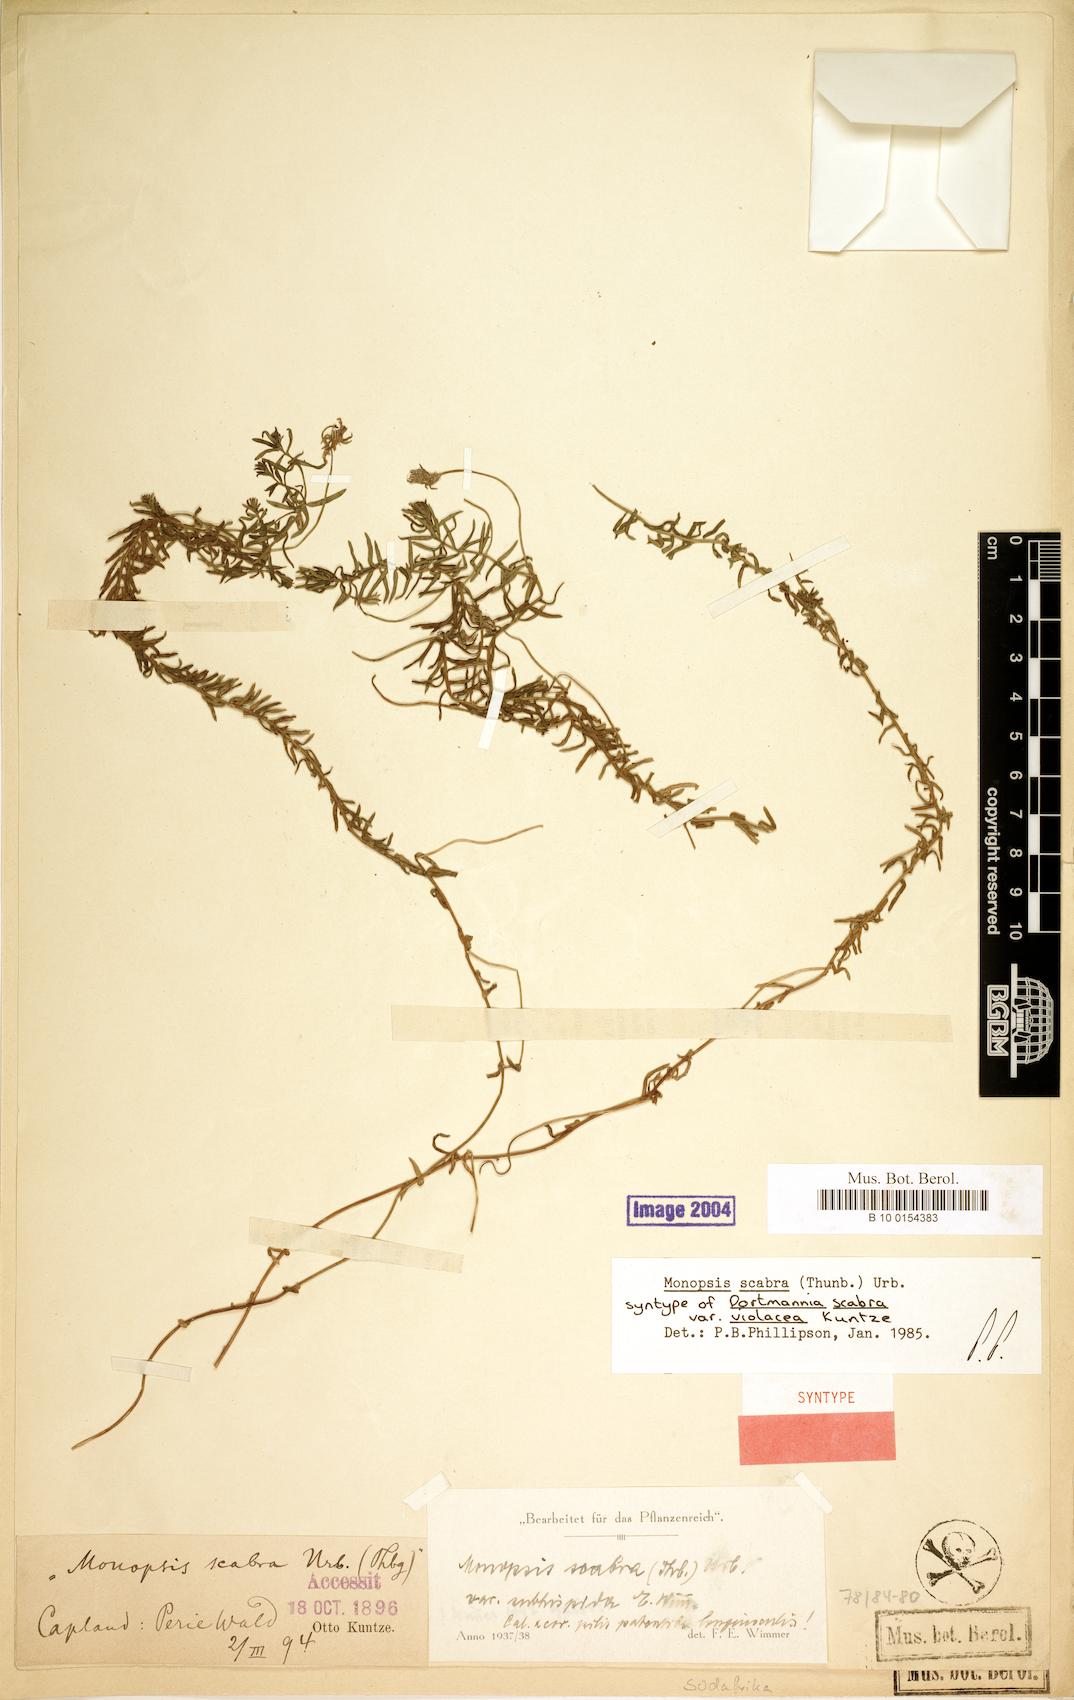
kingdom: Plantae
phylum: Tracheophyta
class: Magnoliopsida
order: Asterales
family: Campanulaceae
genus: Monopsis
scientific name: Monopsis scabra
